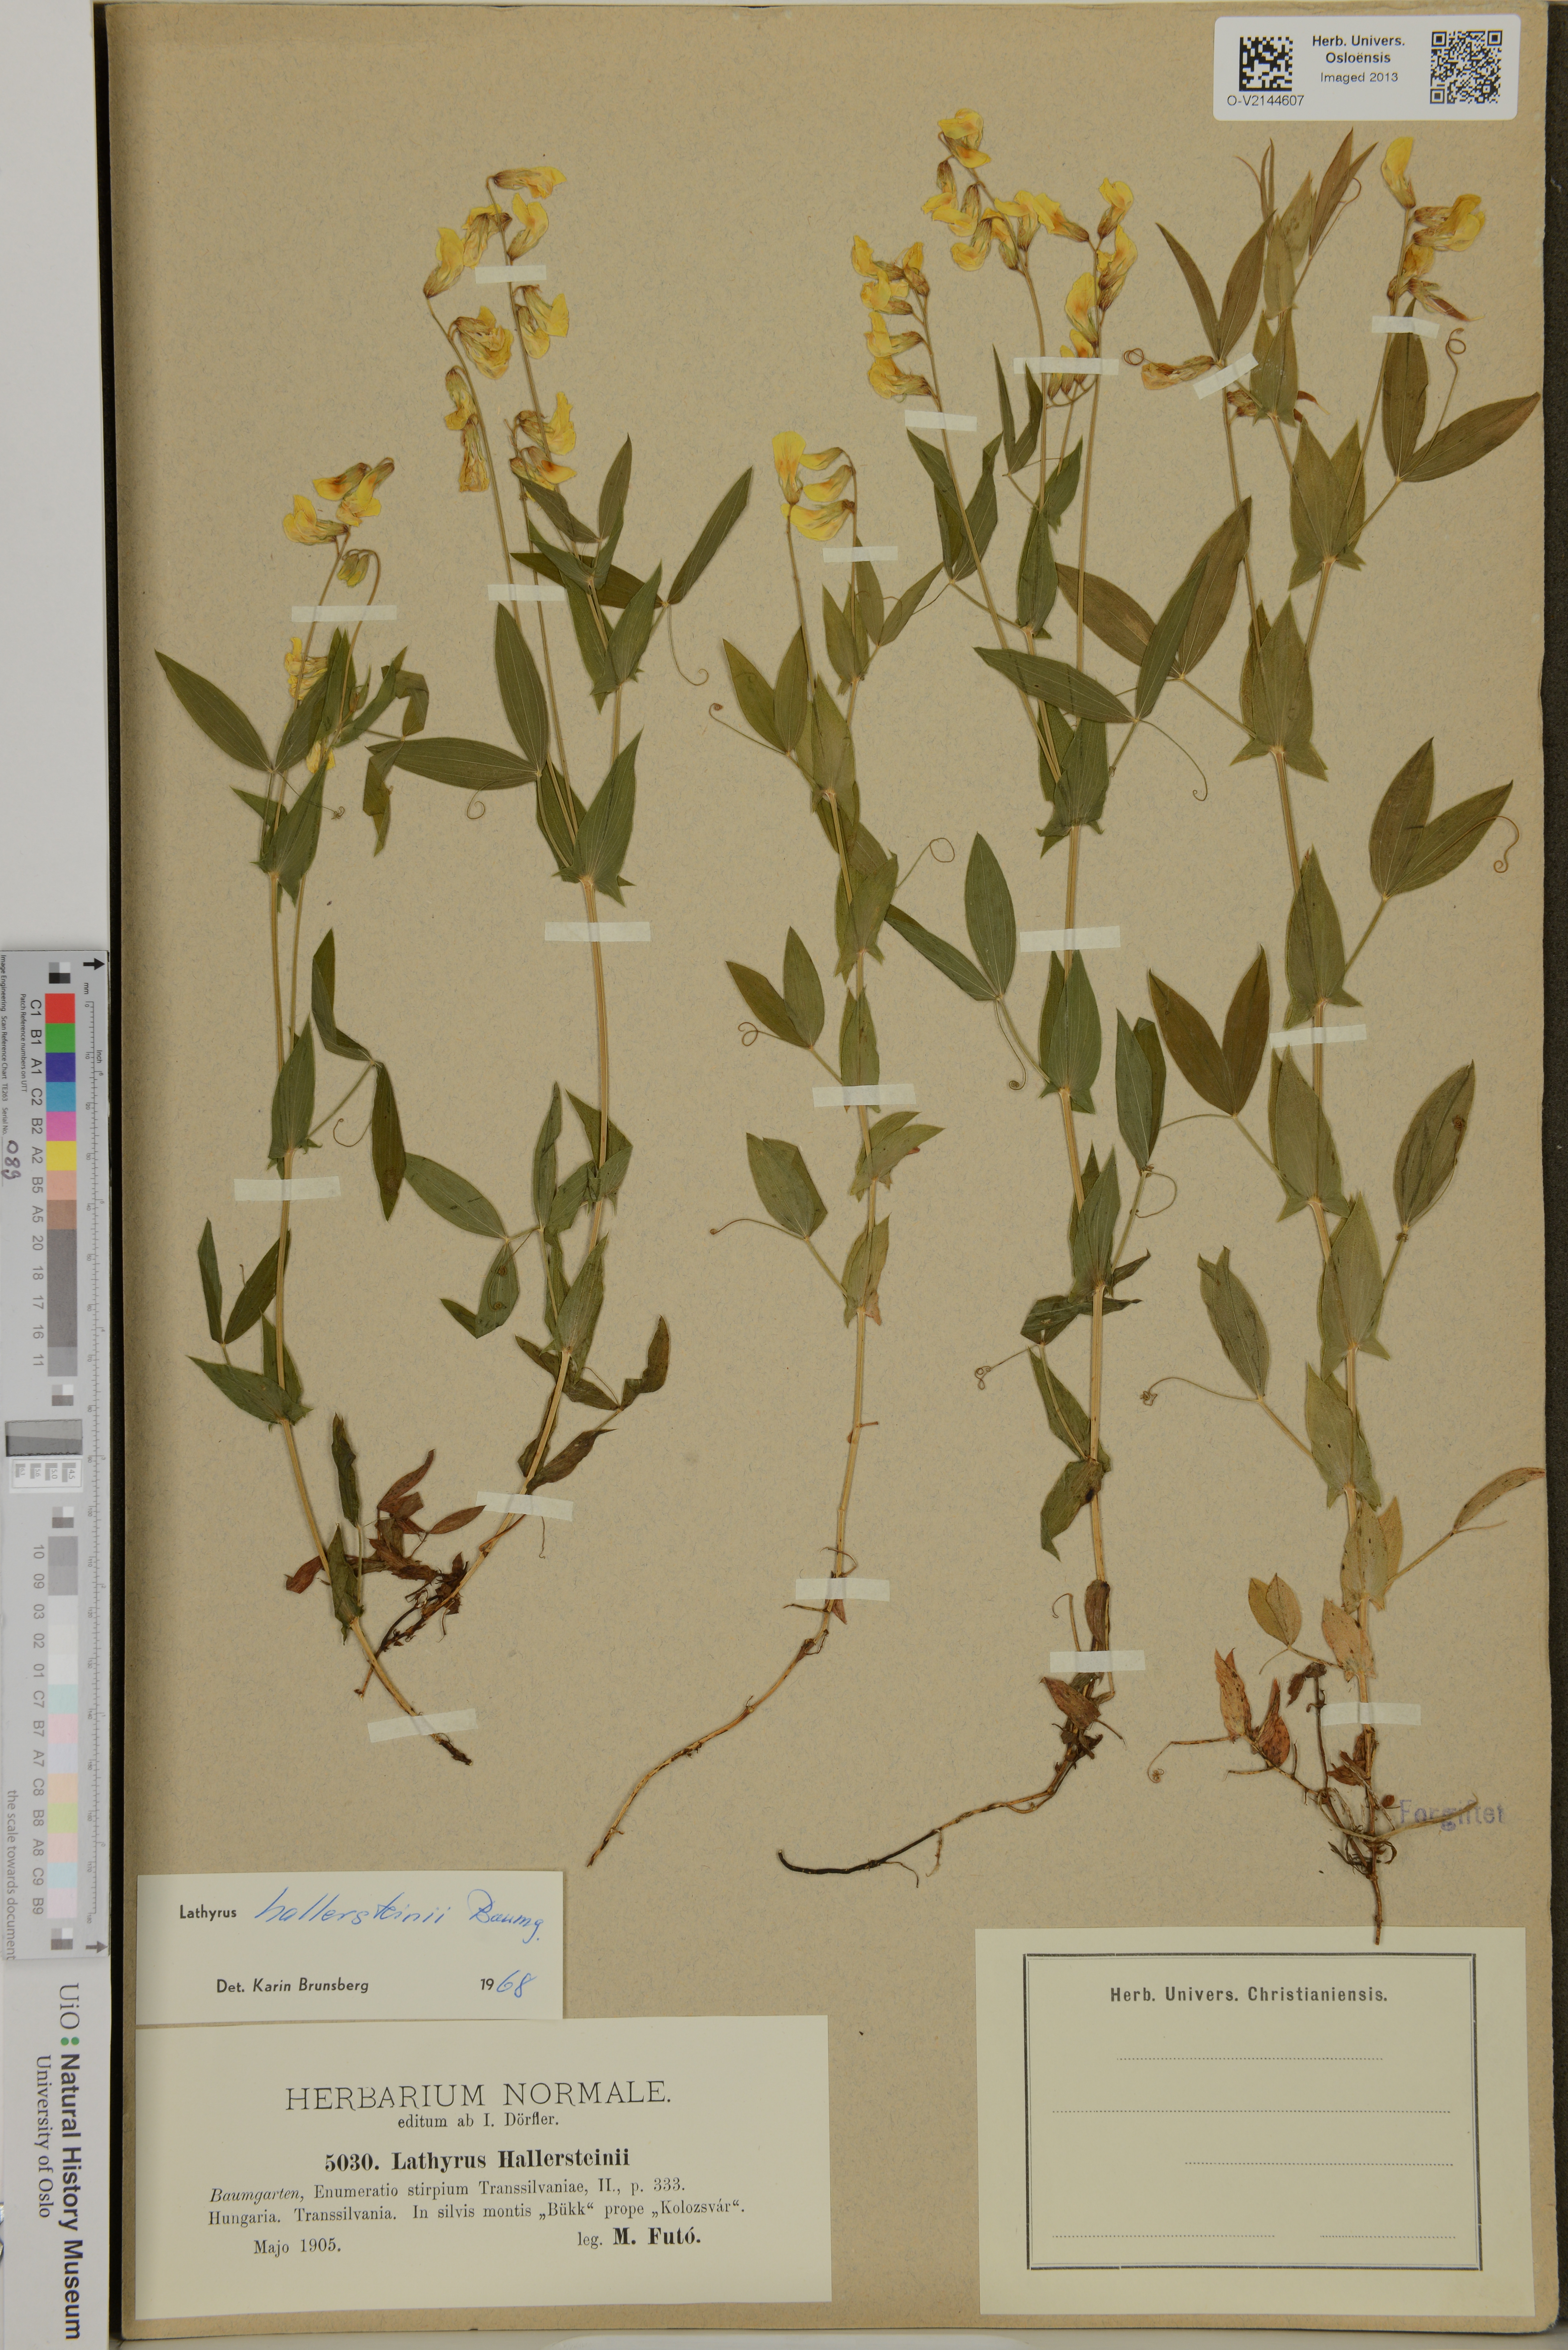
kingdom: Plantae
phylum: Tracheophyta
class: Magnoliopsida
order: Fabales
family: Fabaceae
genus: Lathyrus
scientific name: Lathyrus hallersteinii
